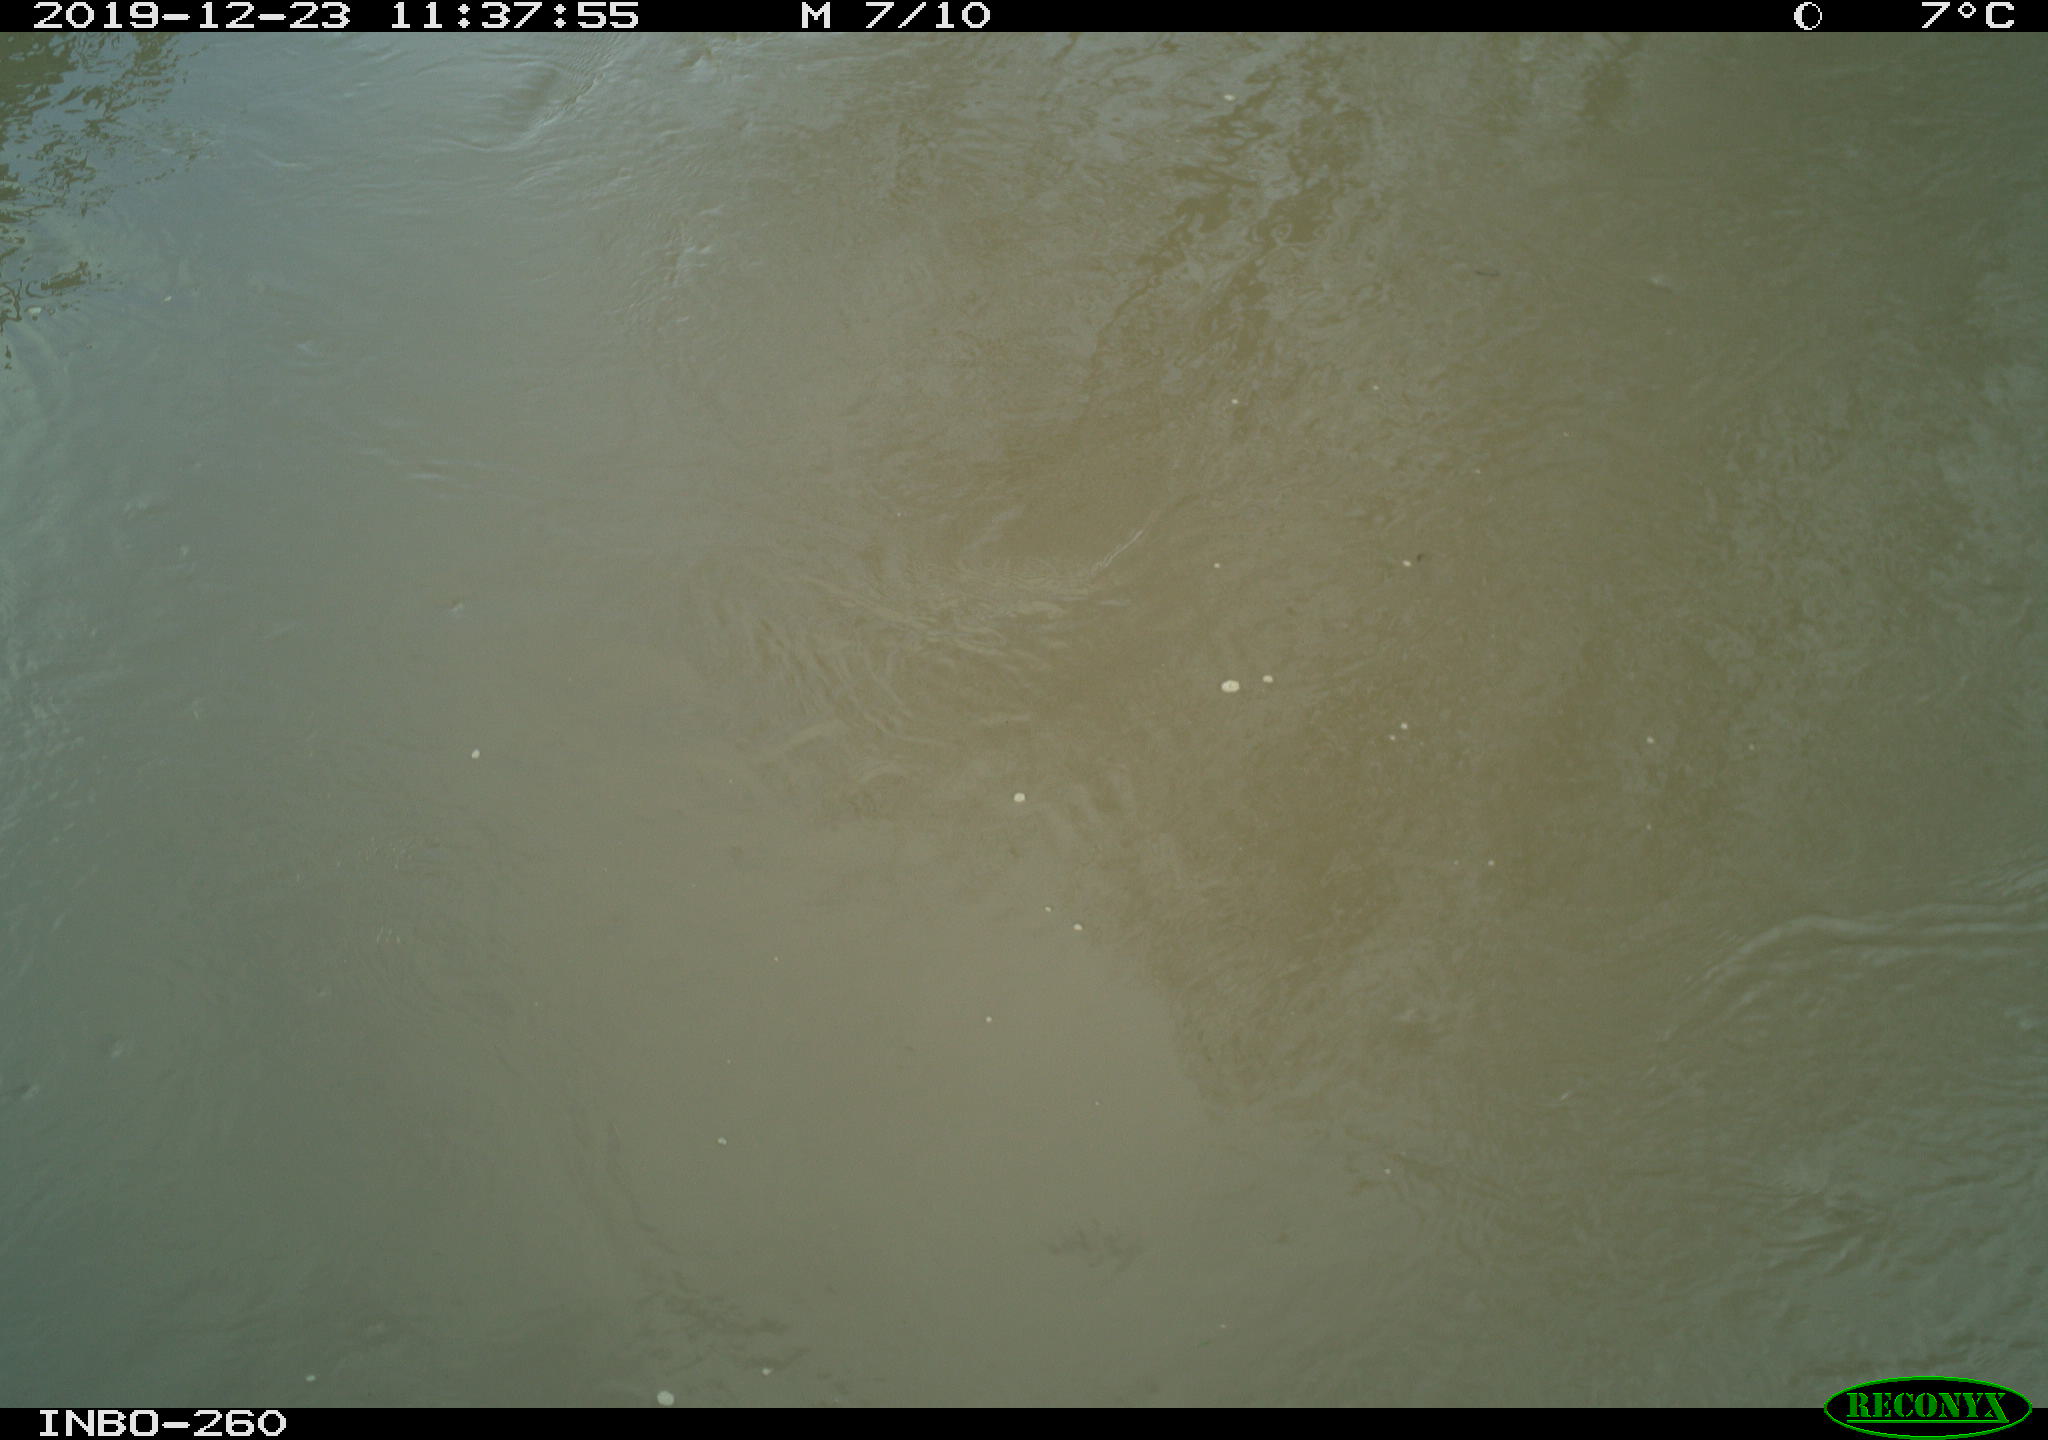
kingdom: Animalia
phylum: Chordata
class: Aves
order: Gruiformes
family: Rallidae
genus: Gallinula
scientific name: Gallinula chloropus
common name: Common moorhen
